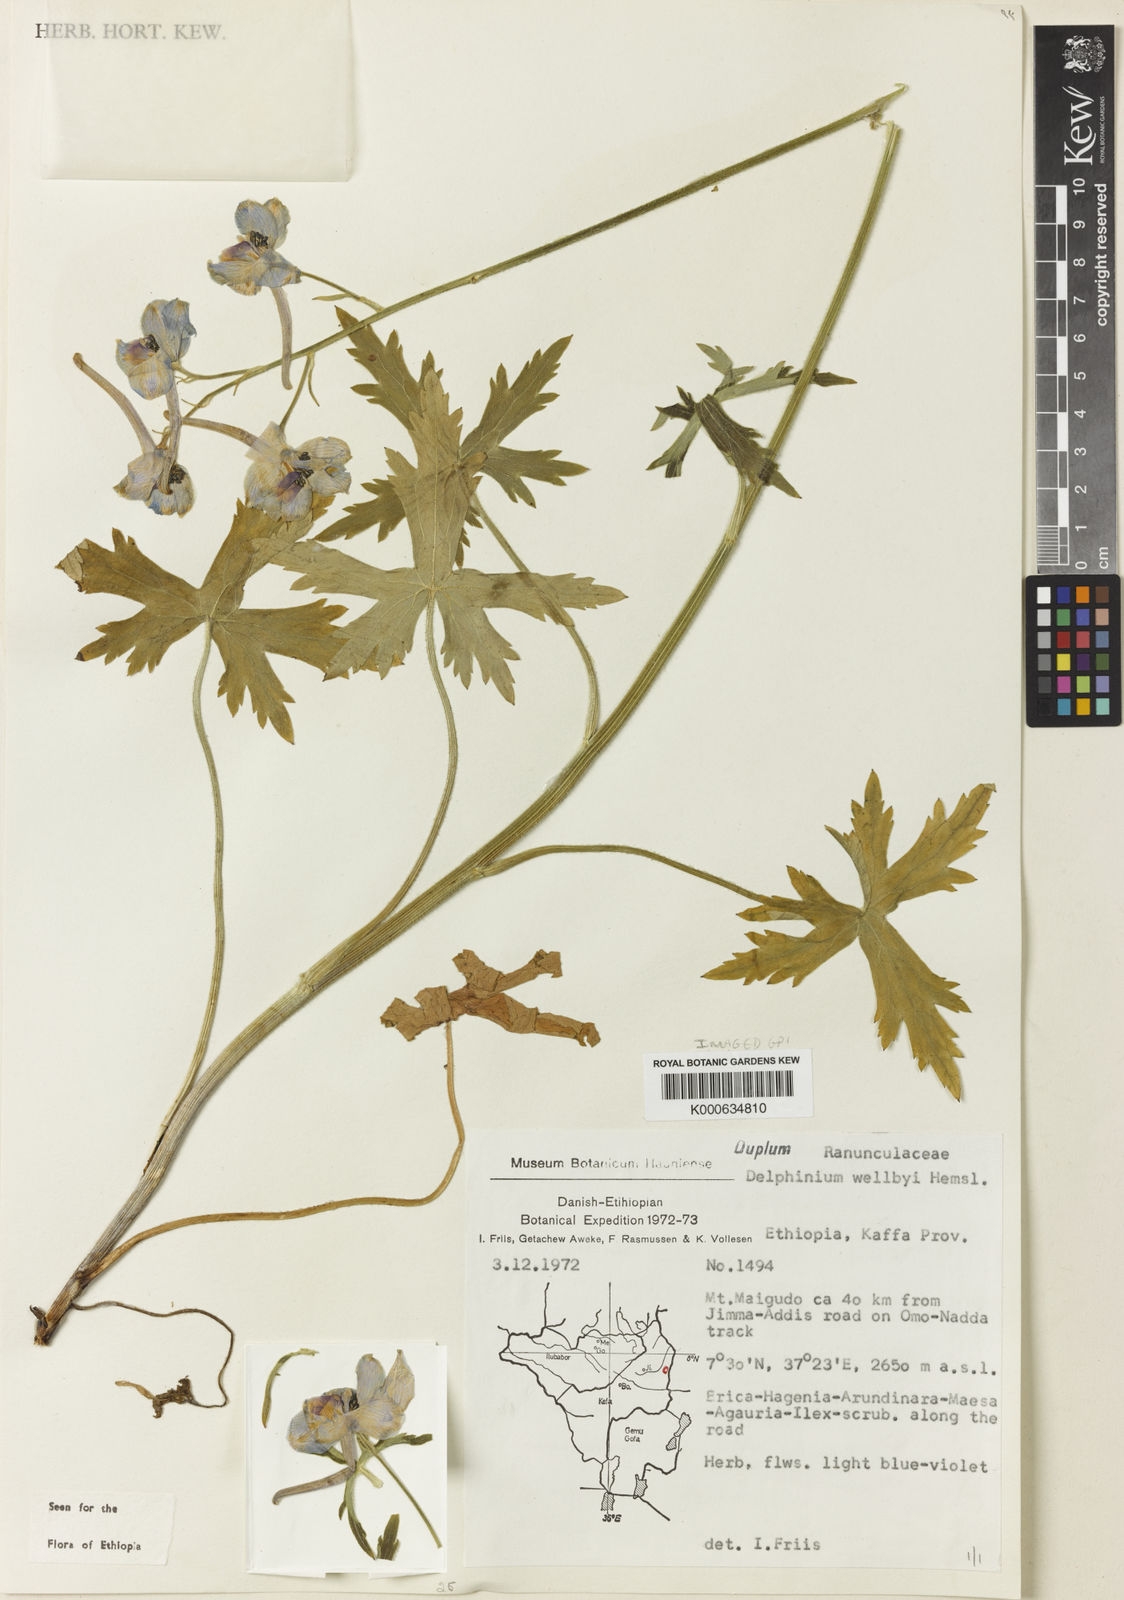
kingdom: Plantae
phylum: Tracheophyta
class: Magnoliopsida
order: Ranunculales
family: Ranunculaceae
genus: Delphinium
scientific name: Delphinium leroyi
